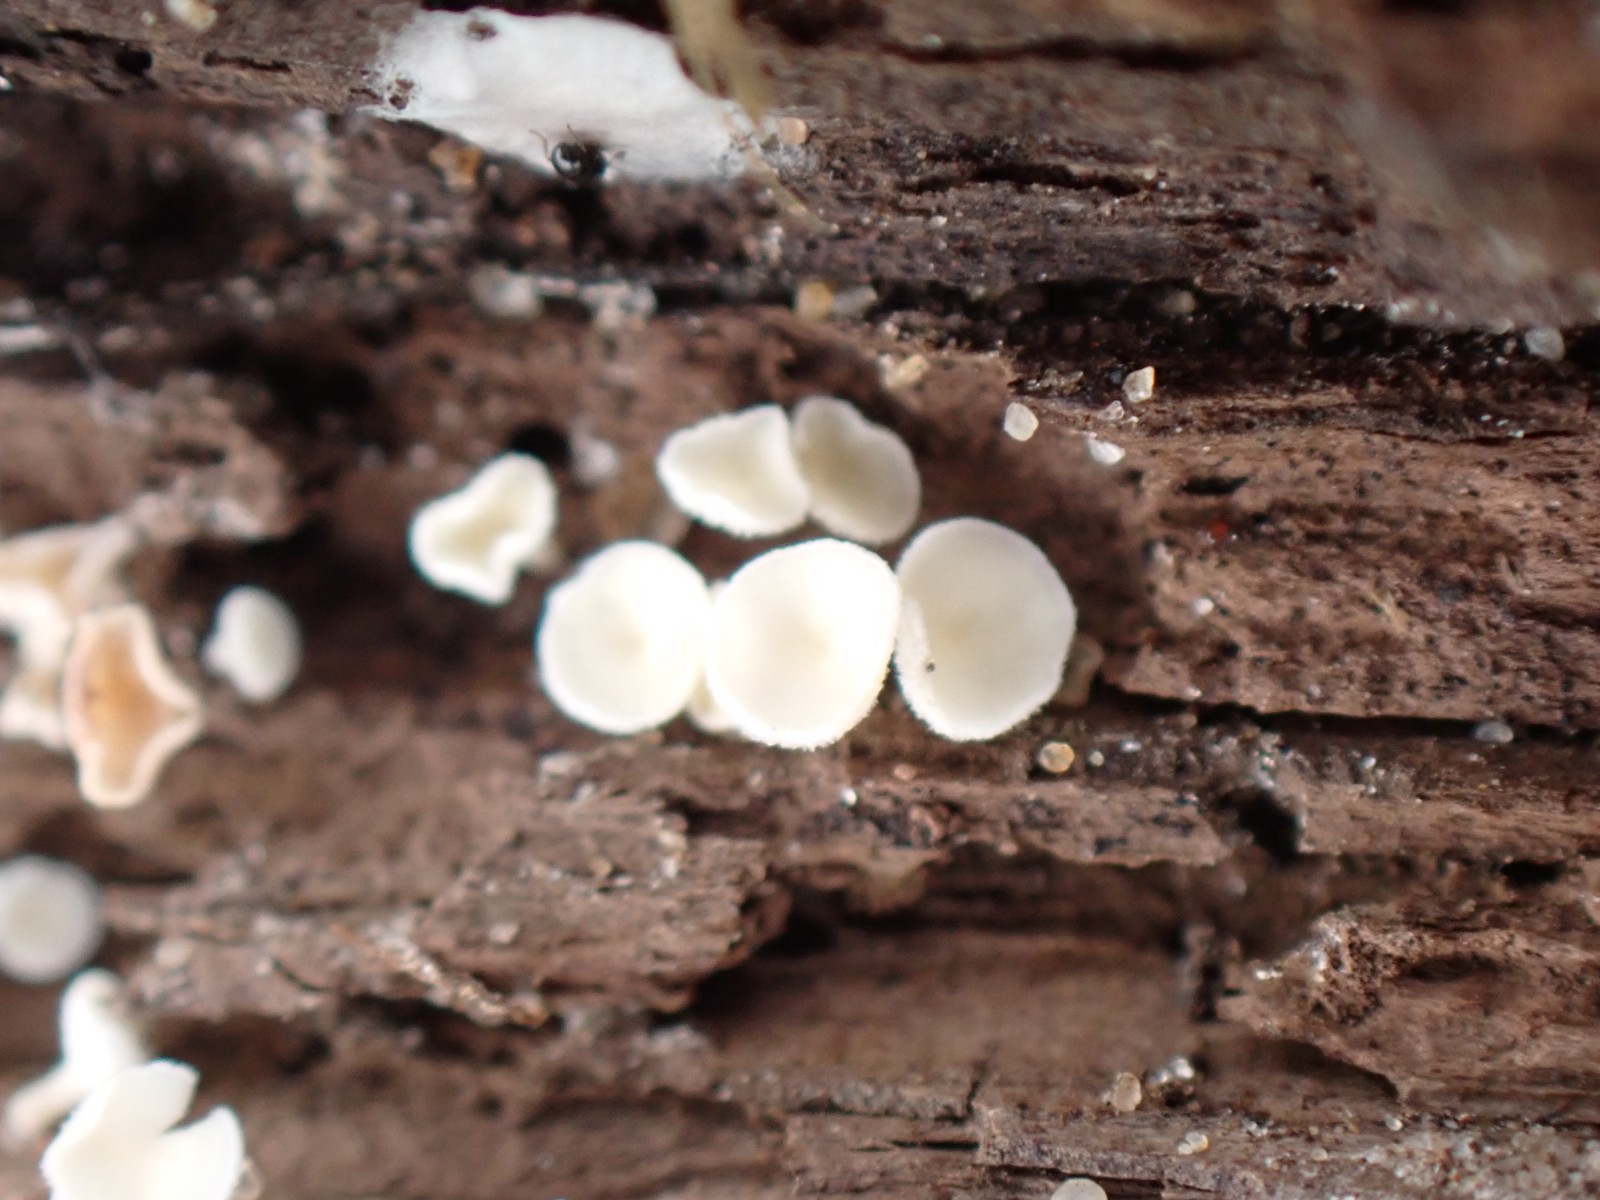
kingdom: Fungi
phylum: Ascomycota
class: Leotiomycetes
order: Helotiales
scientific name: Helotiales
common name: stilkskiveordenen
